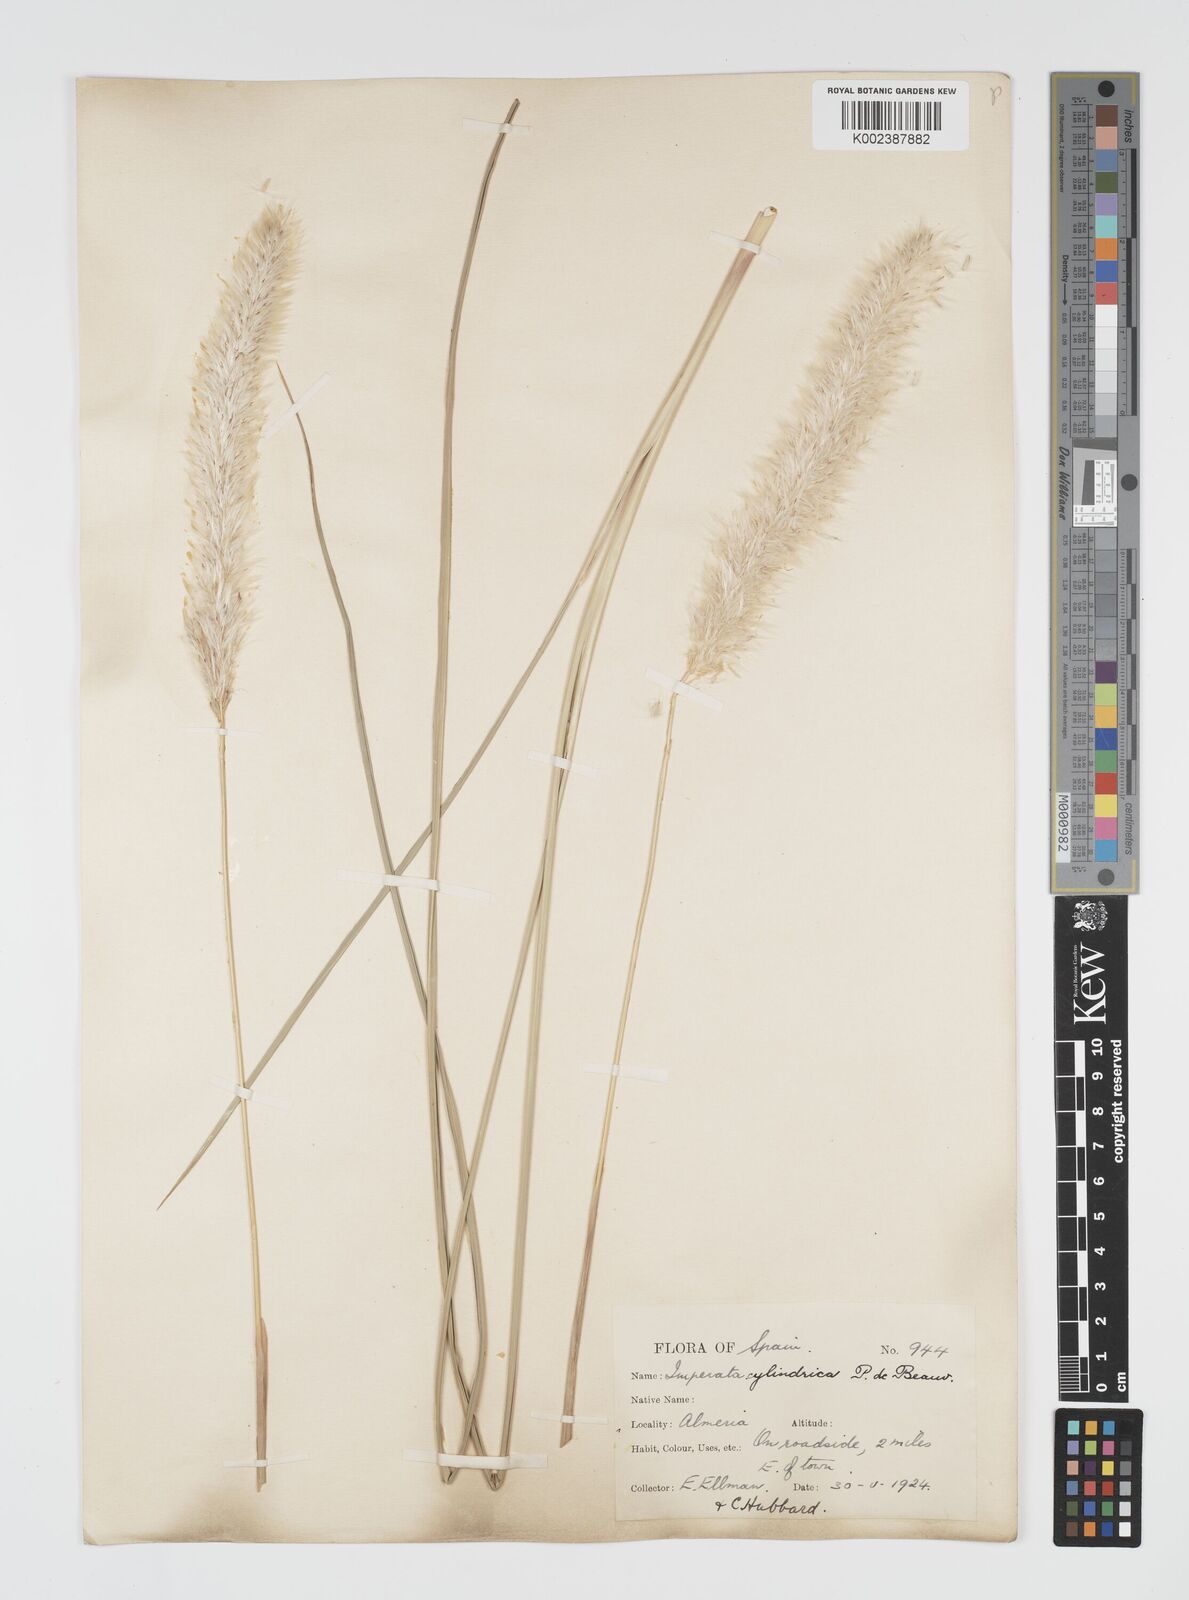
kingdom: Plantae
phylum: Tracheophyta
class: Liliopsida
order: Poales
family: Poaceae
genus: Imperata
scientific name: Imperata cylindrica
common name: Cogongrass
